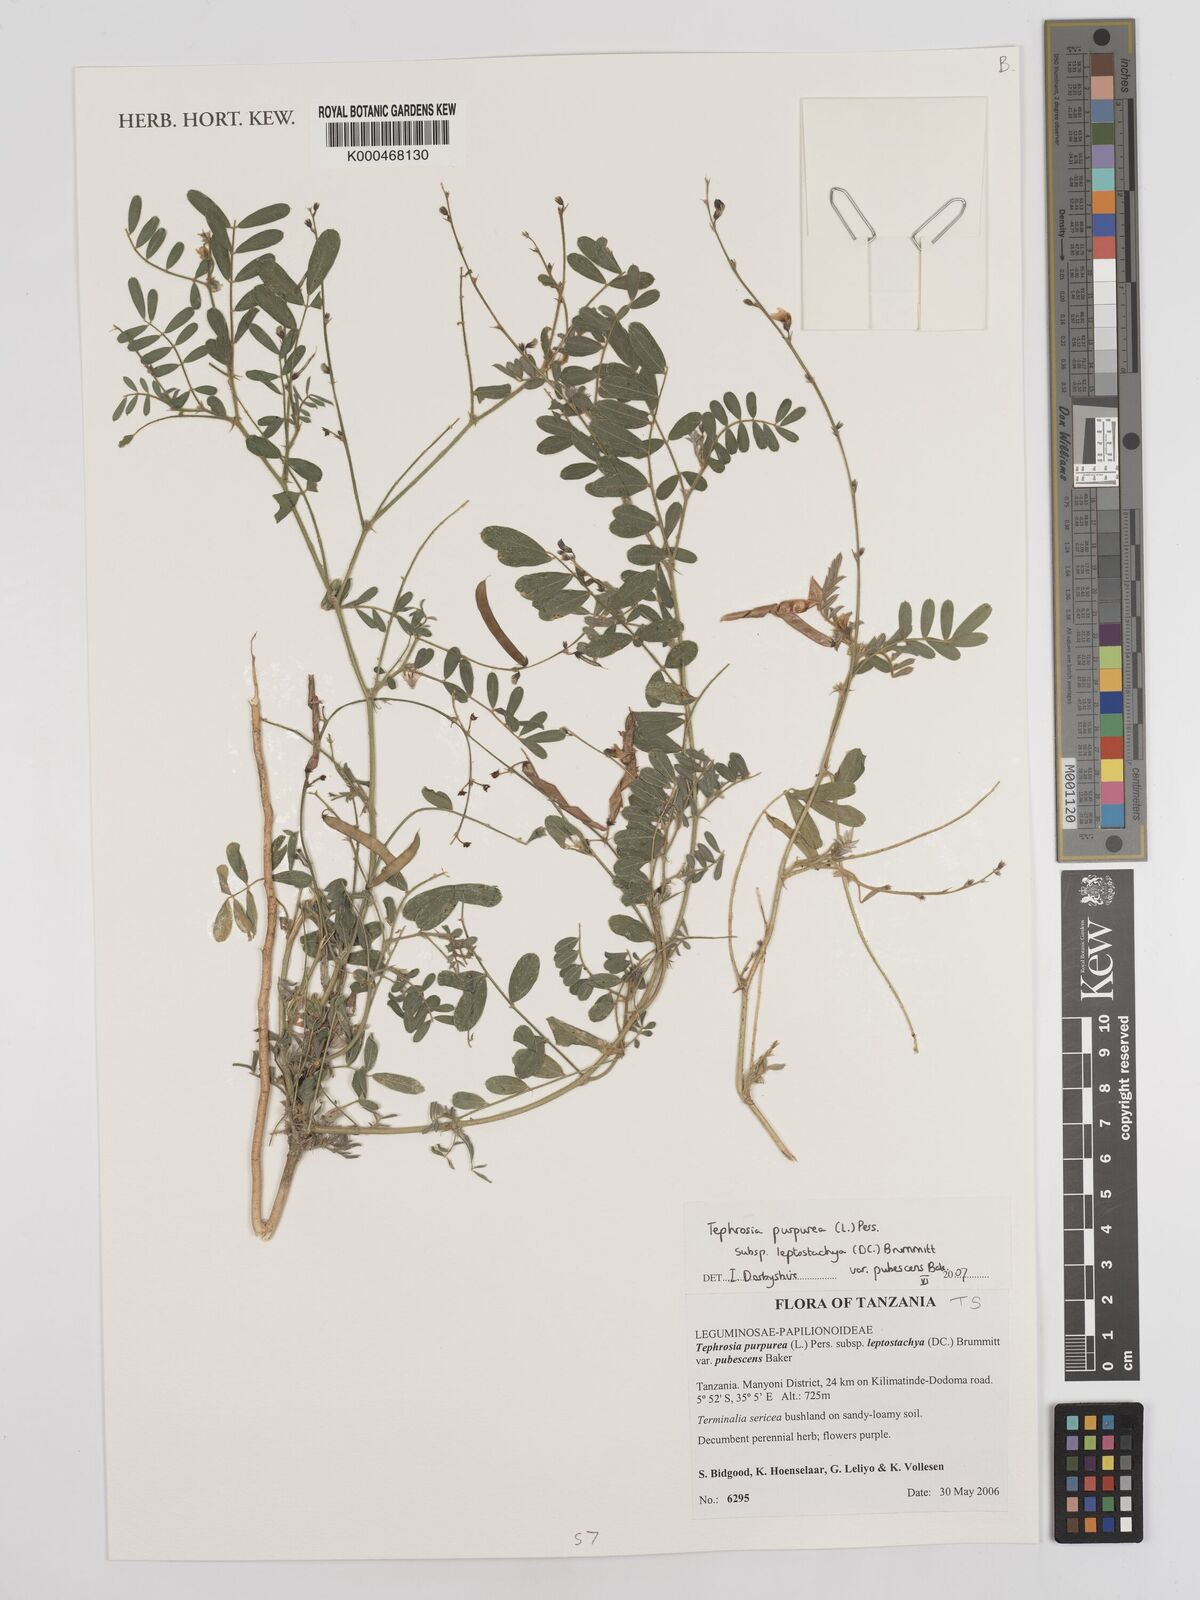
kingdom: Plantae
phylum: Tracheophyta
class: Magnoliopsida
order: Fabales
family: Fabaceae
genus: Tephrosia
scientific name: Tephrosia purpurea
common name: Fishpoison
